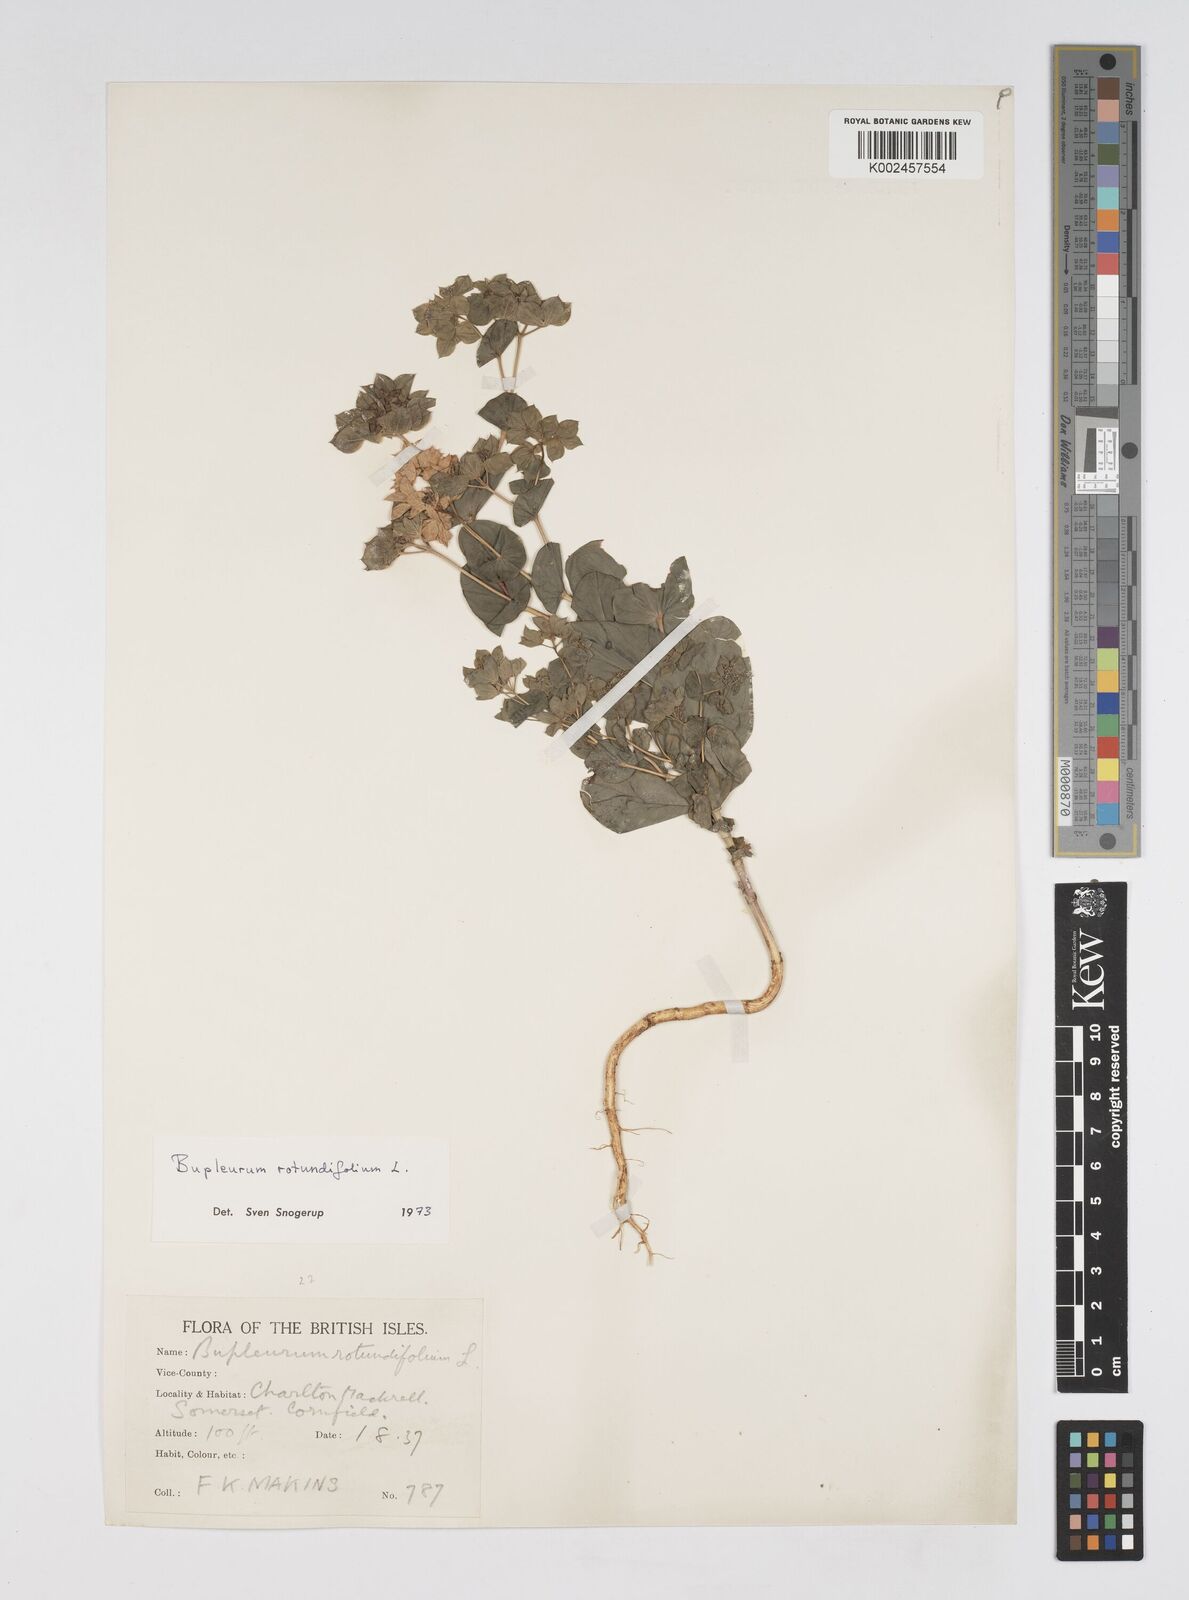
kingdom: Plantae
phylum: Tracheophyta
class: Magnoliopsida
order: Apiales
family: Apiaceae
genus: Bupleurum
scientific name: Bupleurum rotundifolium
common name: Thorow-wax
